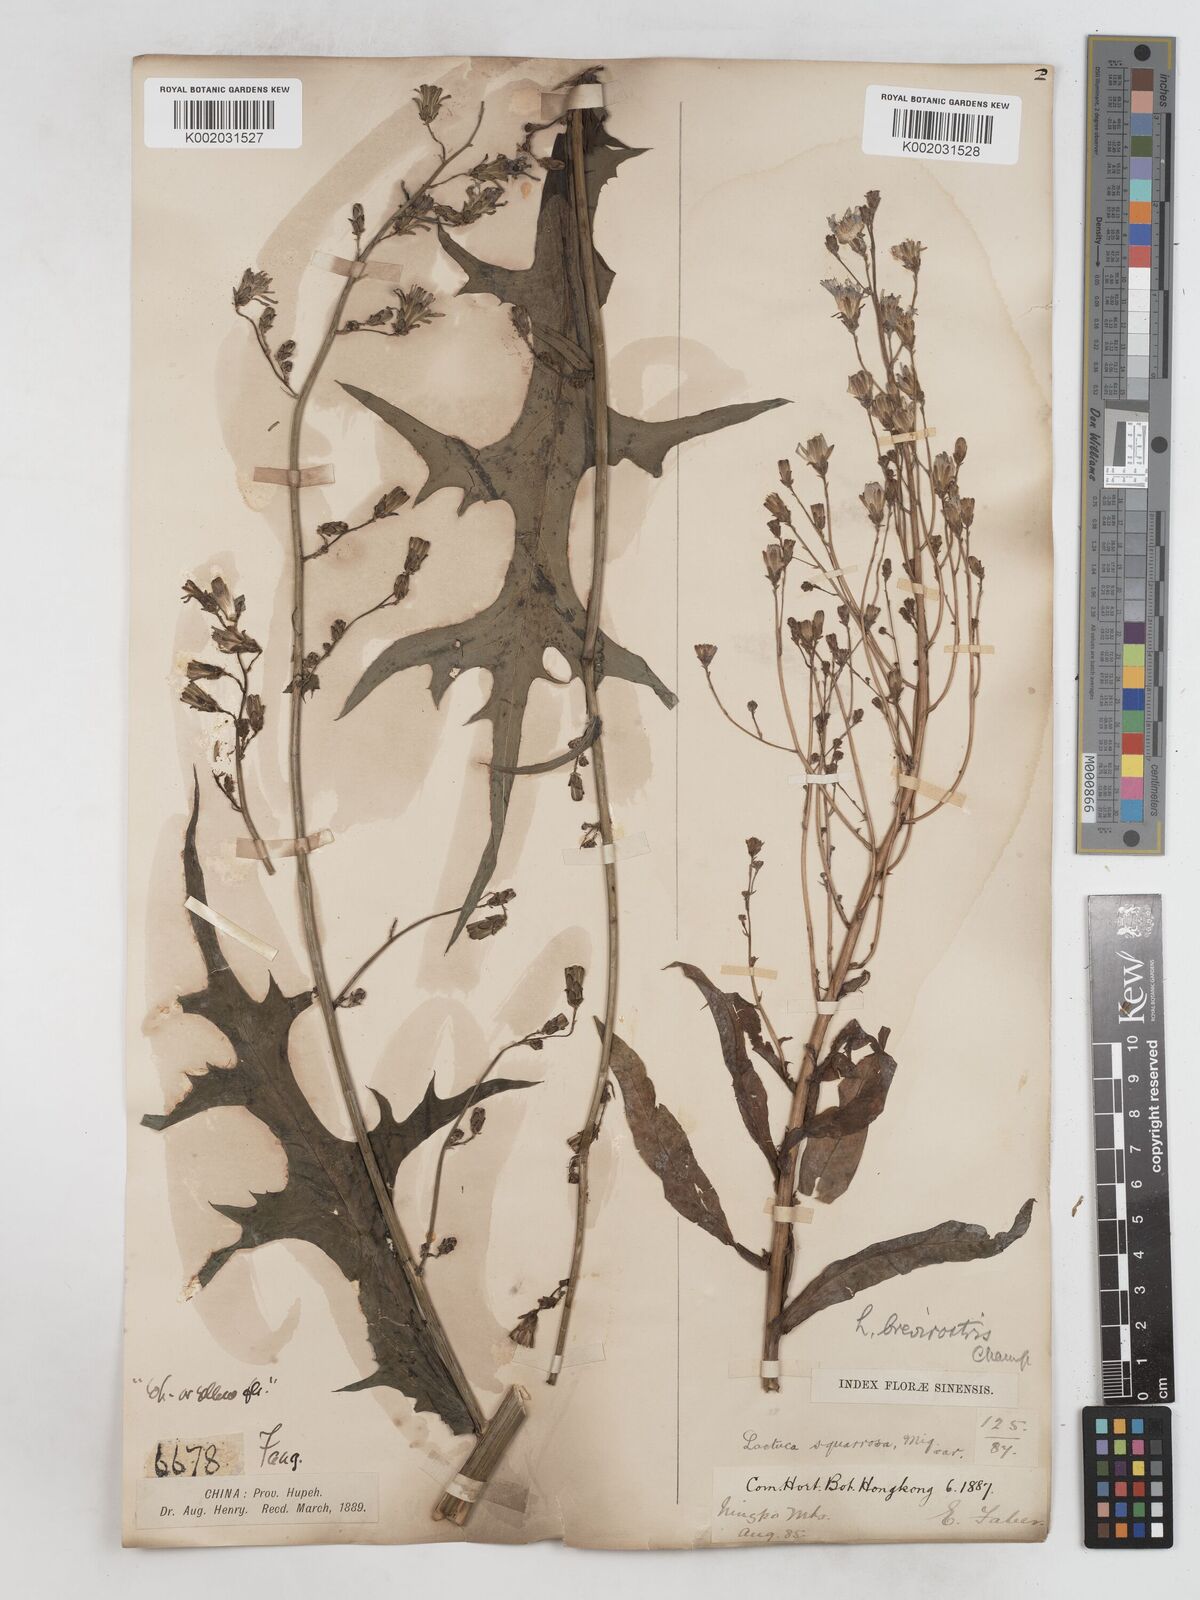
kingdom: Plantae
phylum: Tracheophyta
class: Magnoliopsida
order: Asterales
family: Asteraceae
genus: Lactuca
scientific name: Lactuca
